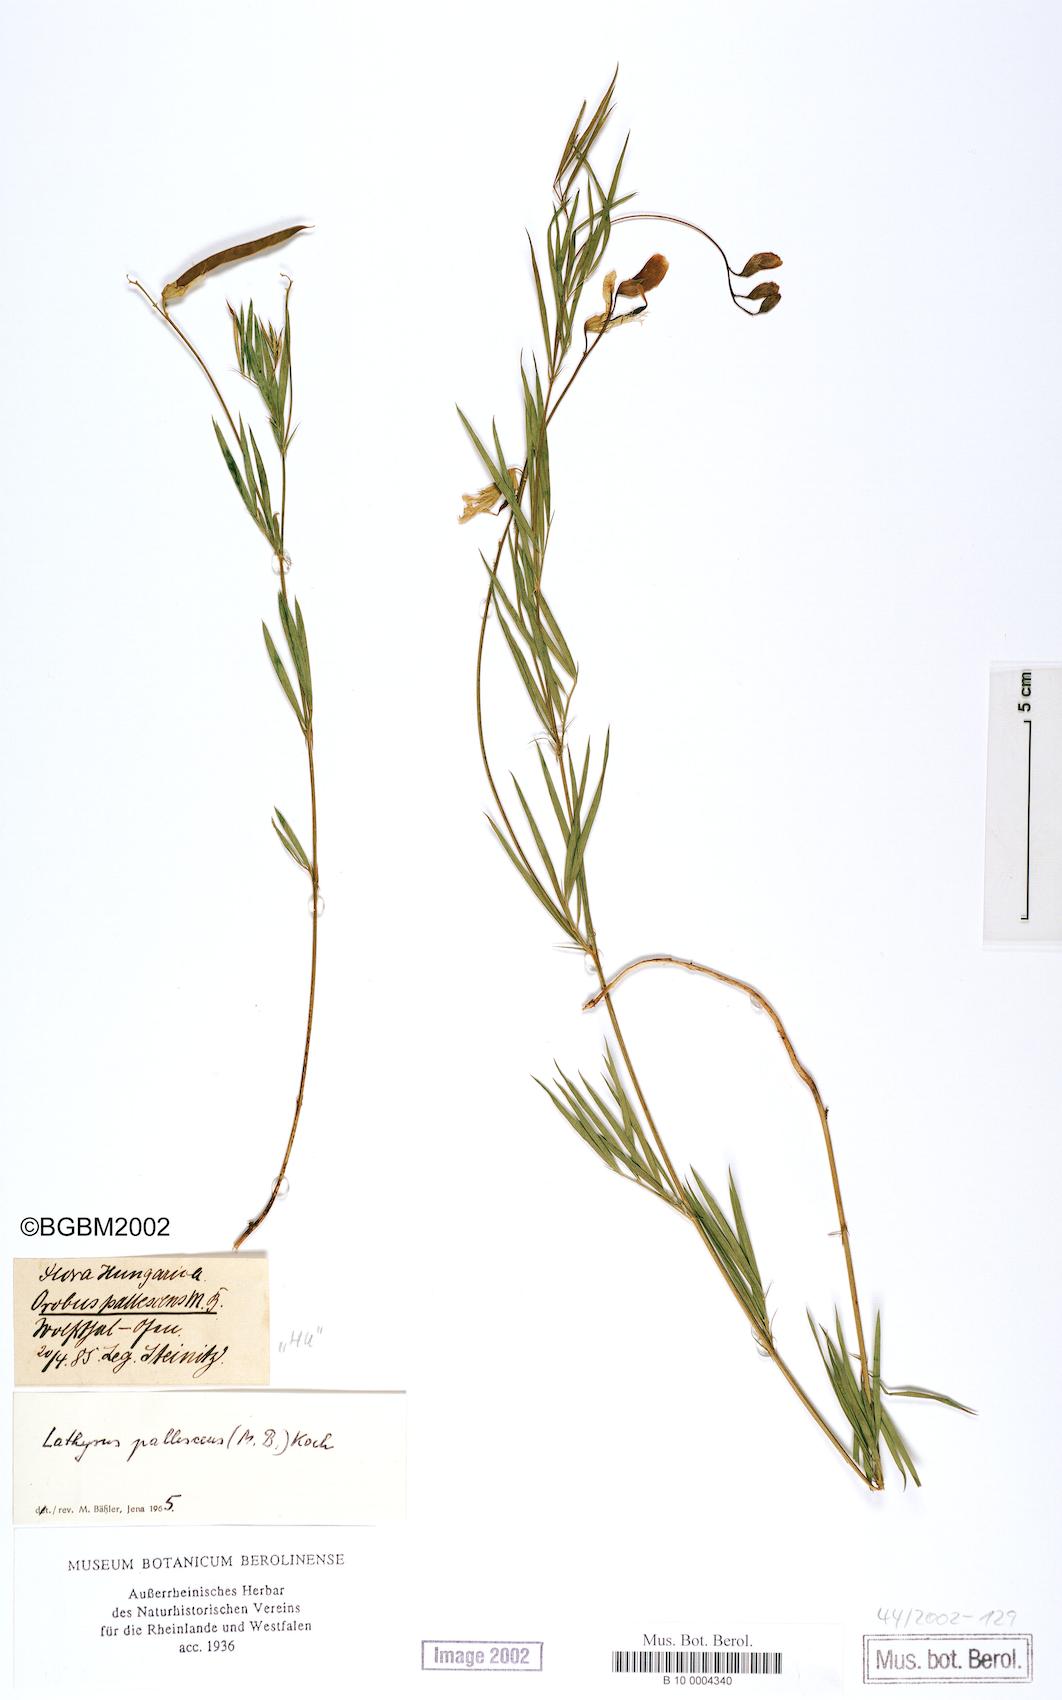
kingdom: Plantae
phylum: Tracheophyta
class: Magnoliopsida
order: Fabales
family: Fabaceae
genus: Lathyrus
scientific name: Lathyrus pallescens
